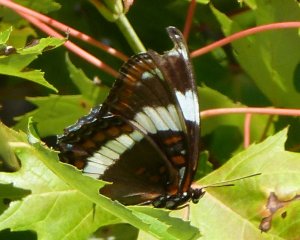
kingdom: Animalia
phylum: Arthropoda
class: Insecta
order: Lepidoptera
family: Nymphalidae
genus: Limenitis
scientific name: Limenitis arthemis
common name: Red-spotted Admiral
